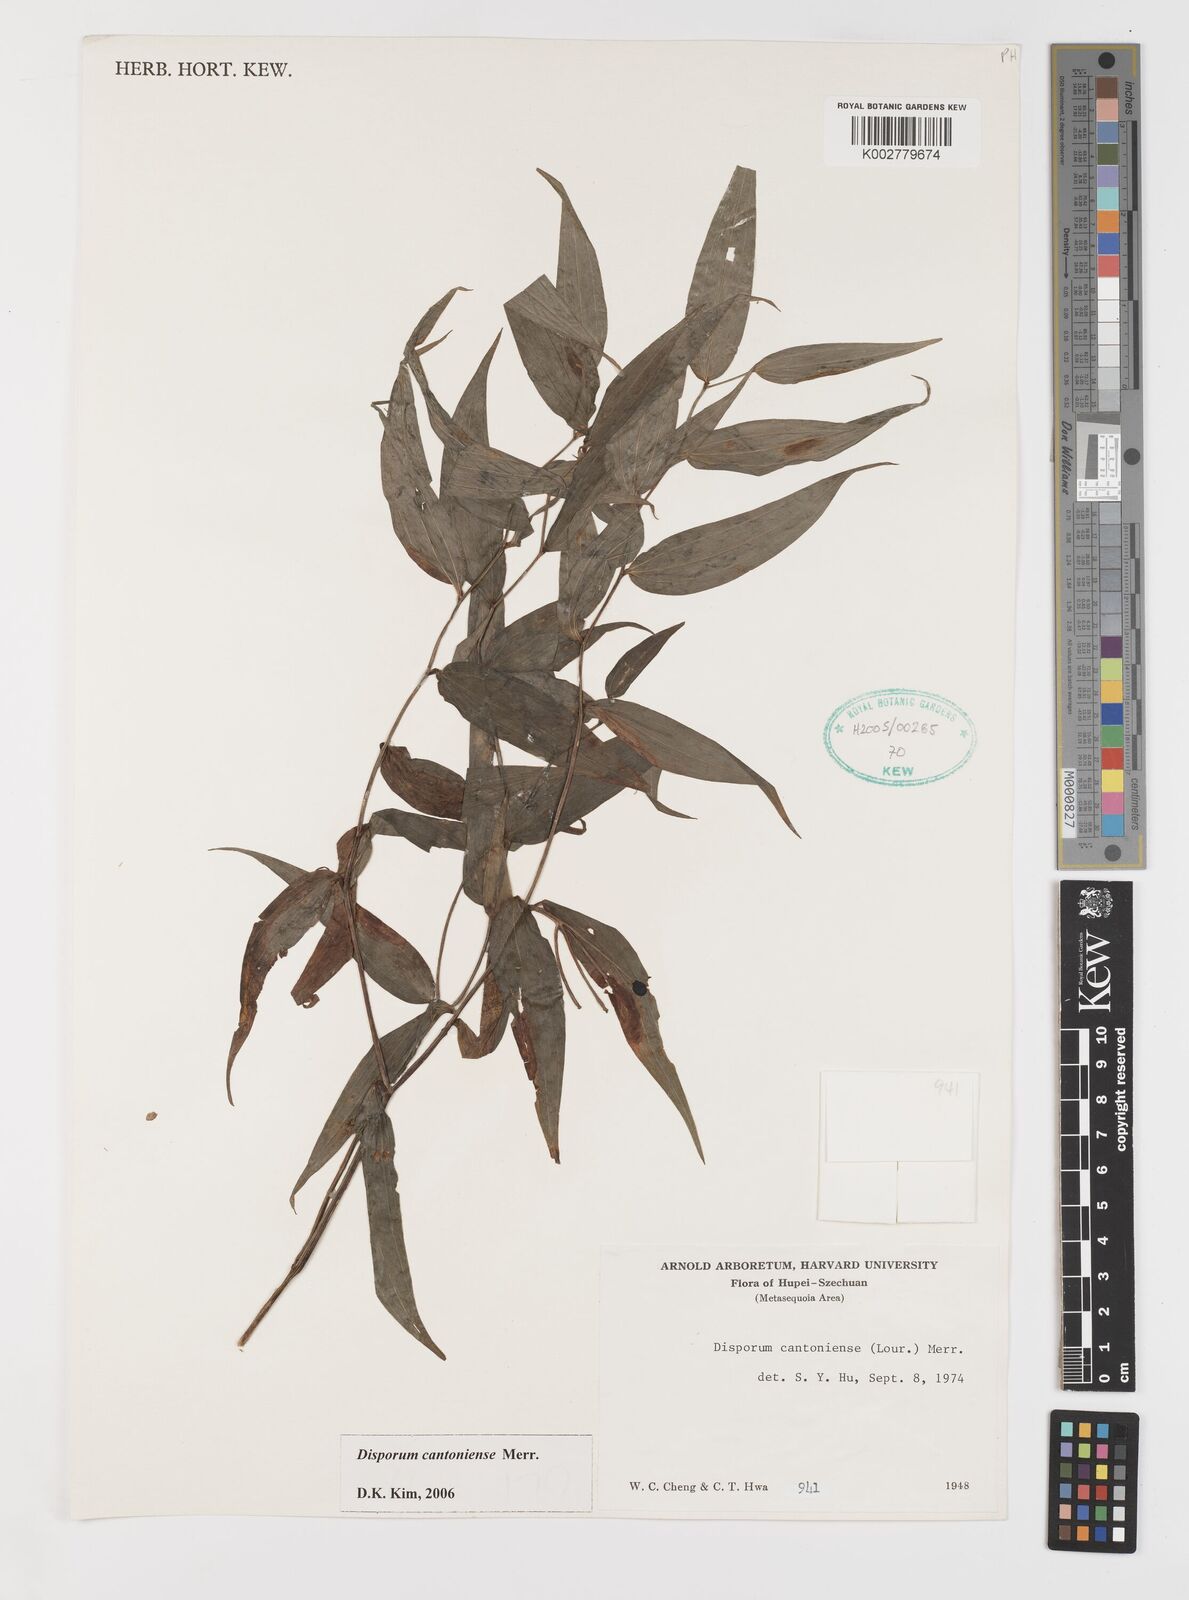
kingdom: Plantae
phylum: Tracheophyta
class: Liliopsida
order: Liliales
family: Colchicaceae
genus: Disporum
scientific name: Disporum cantoniense
